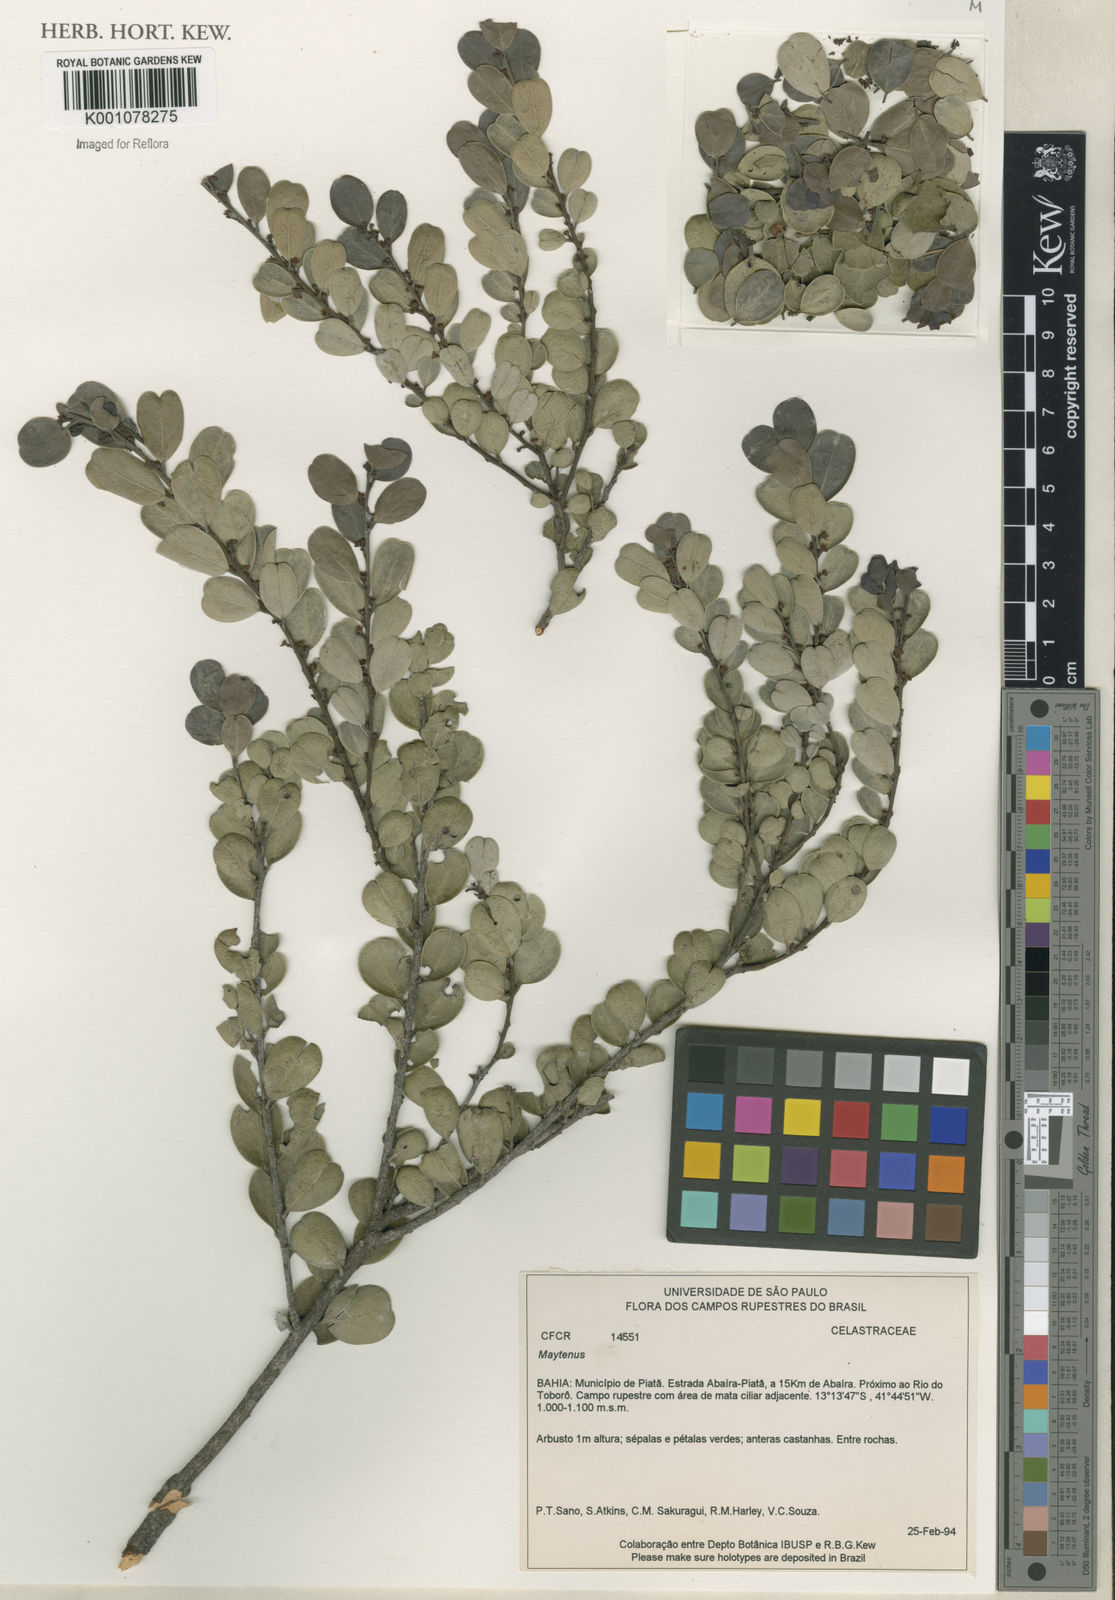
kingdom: Plantae
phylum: Tracheophyta
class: Magnoliopsida
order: Celastrales
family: Celastraceae
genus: Maytenus
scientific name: Maytenus
